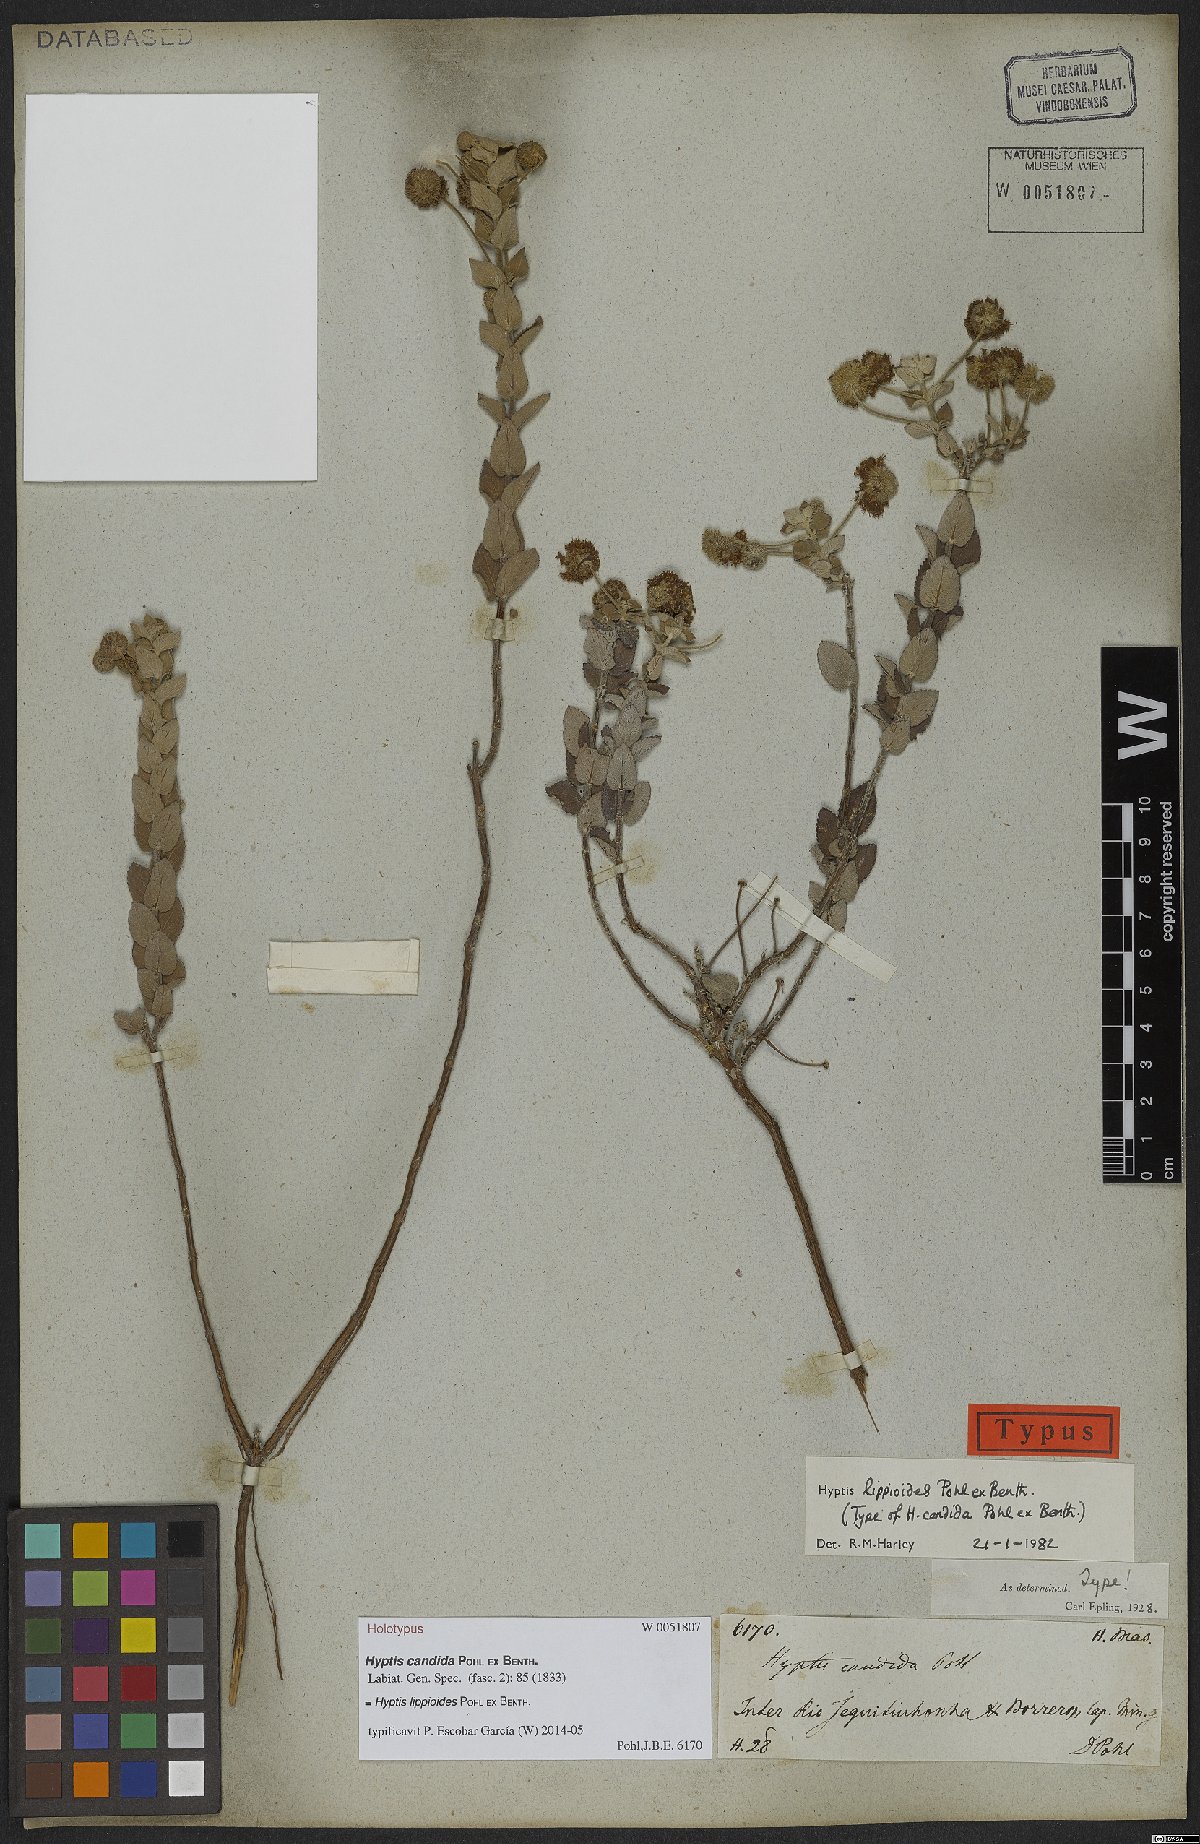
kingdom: Plantae
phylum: Tracheophyta
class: Magnoliopsida
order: Lamiales
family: Lamiaceae
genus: Cyanocephalus
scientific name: Cyanocephalus lippioides
